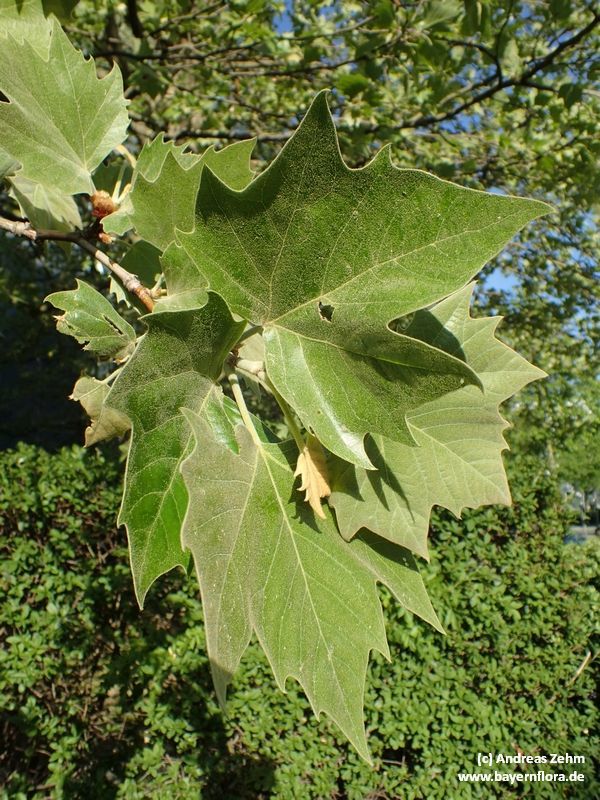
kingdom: Plantae
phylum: Tracheophyta
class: Magnoliopsida
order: Ranunculales
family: Papaveraceae
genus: Platanus
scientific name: Platanus
